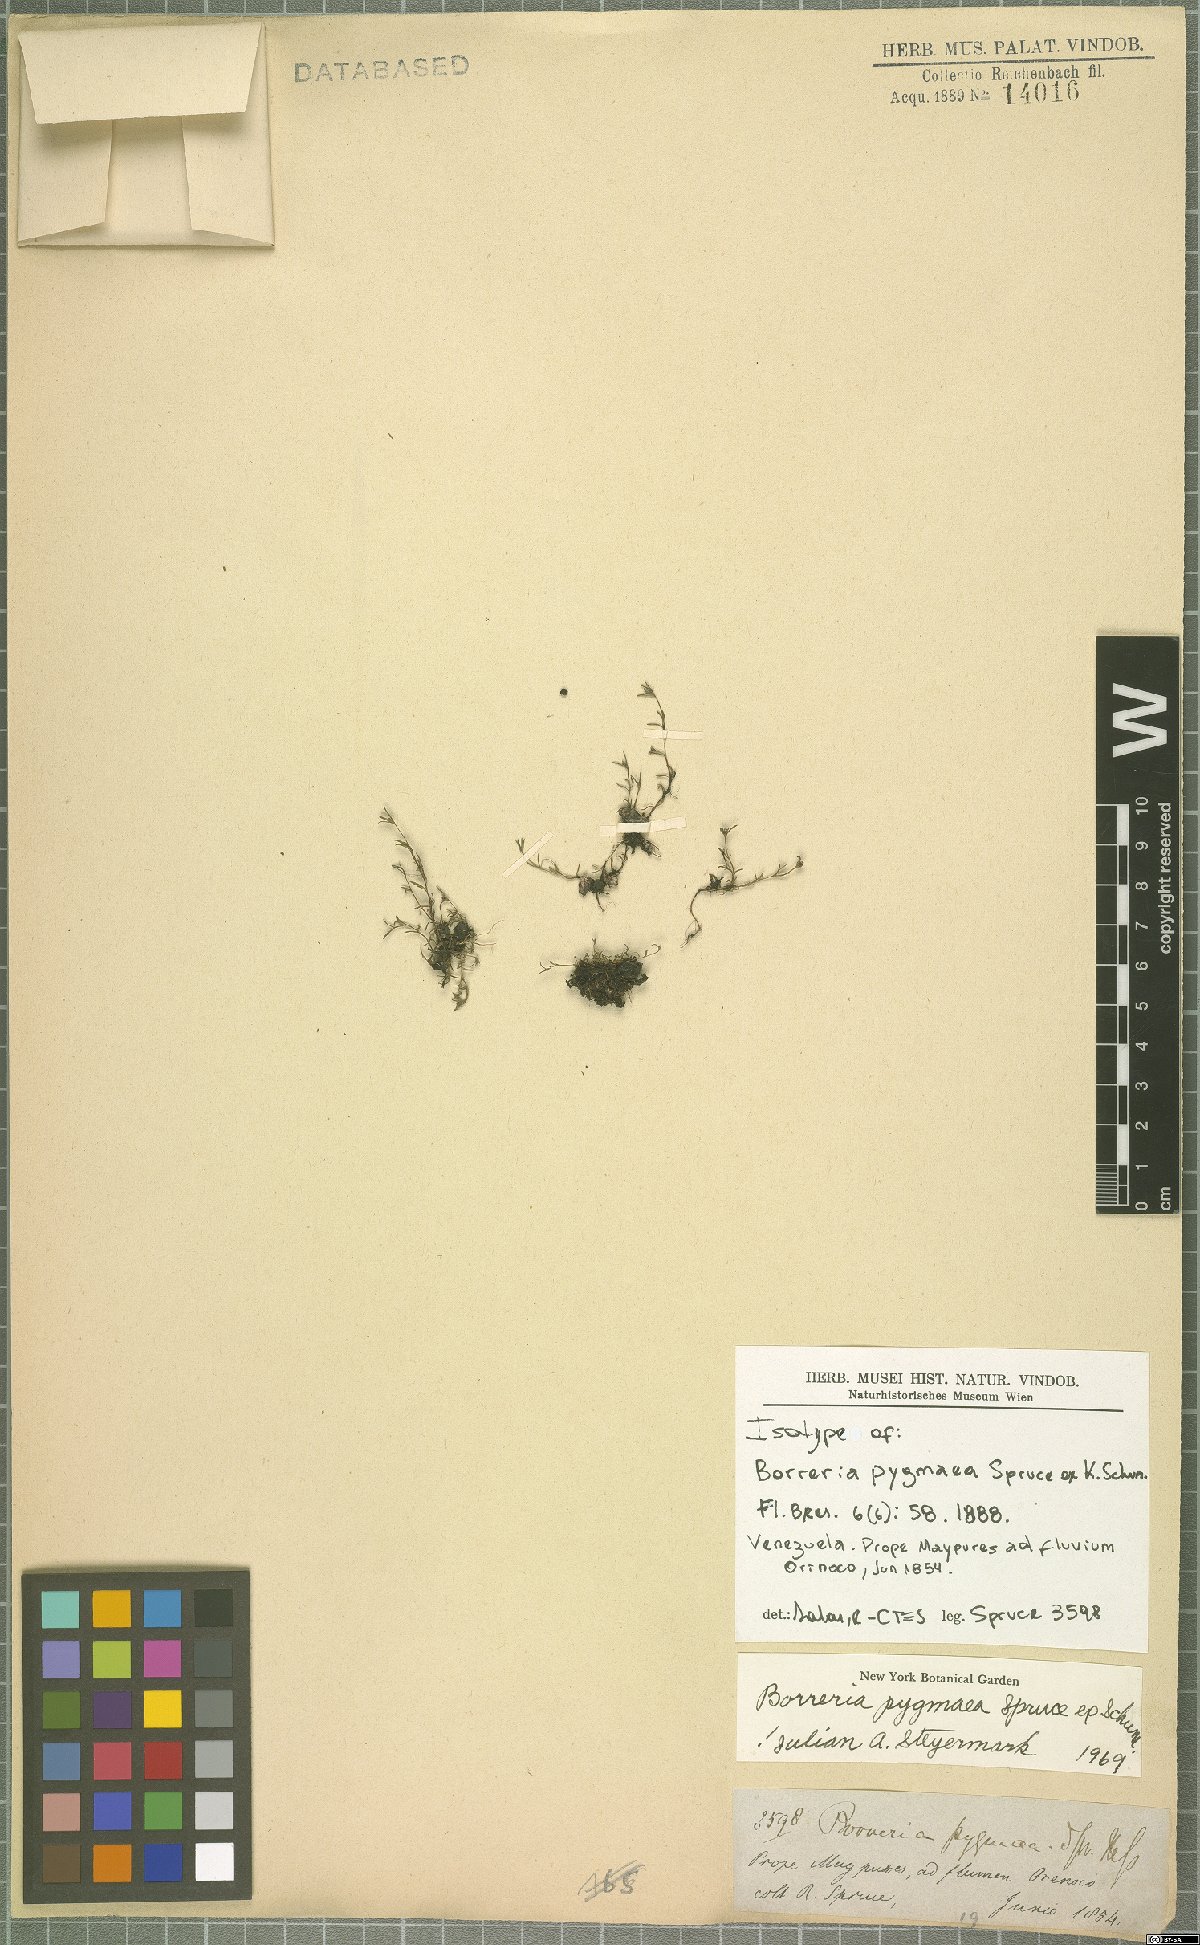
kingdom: Plantae
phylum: Tracheophyta
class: Magnoliopsida
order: Gentianales
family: Rubiaceae
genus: Spermacoce
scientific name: Spermacoce spruceana
